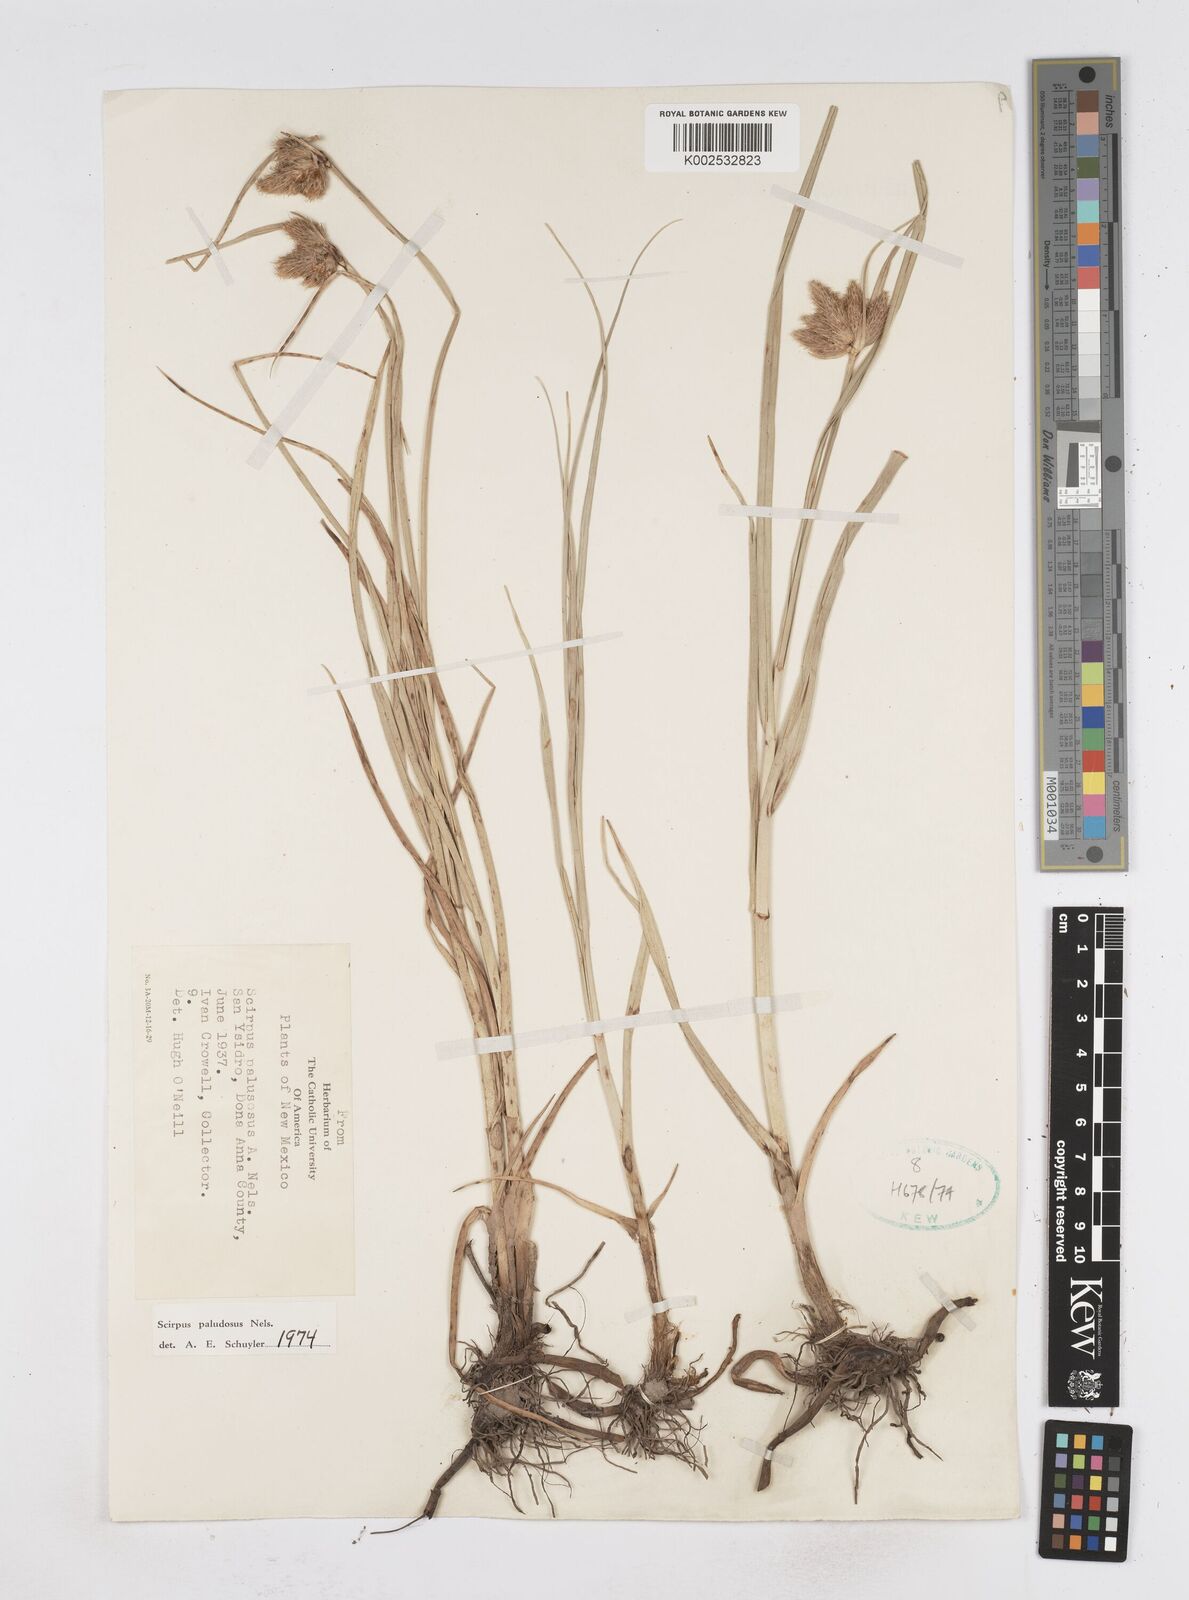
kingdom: Plantae
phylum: Tracheophyta
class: Liliopsida
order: Poales
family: Cyperaceae
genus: Bolboschoenus
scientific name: Bolboschoenus maritimus
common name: Sea club-rush
